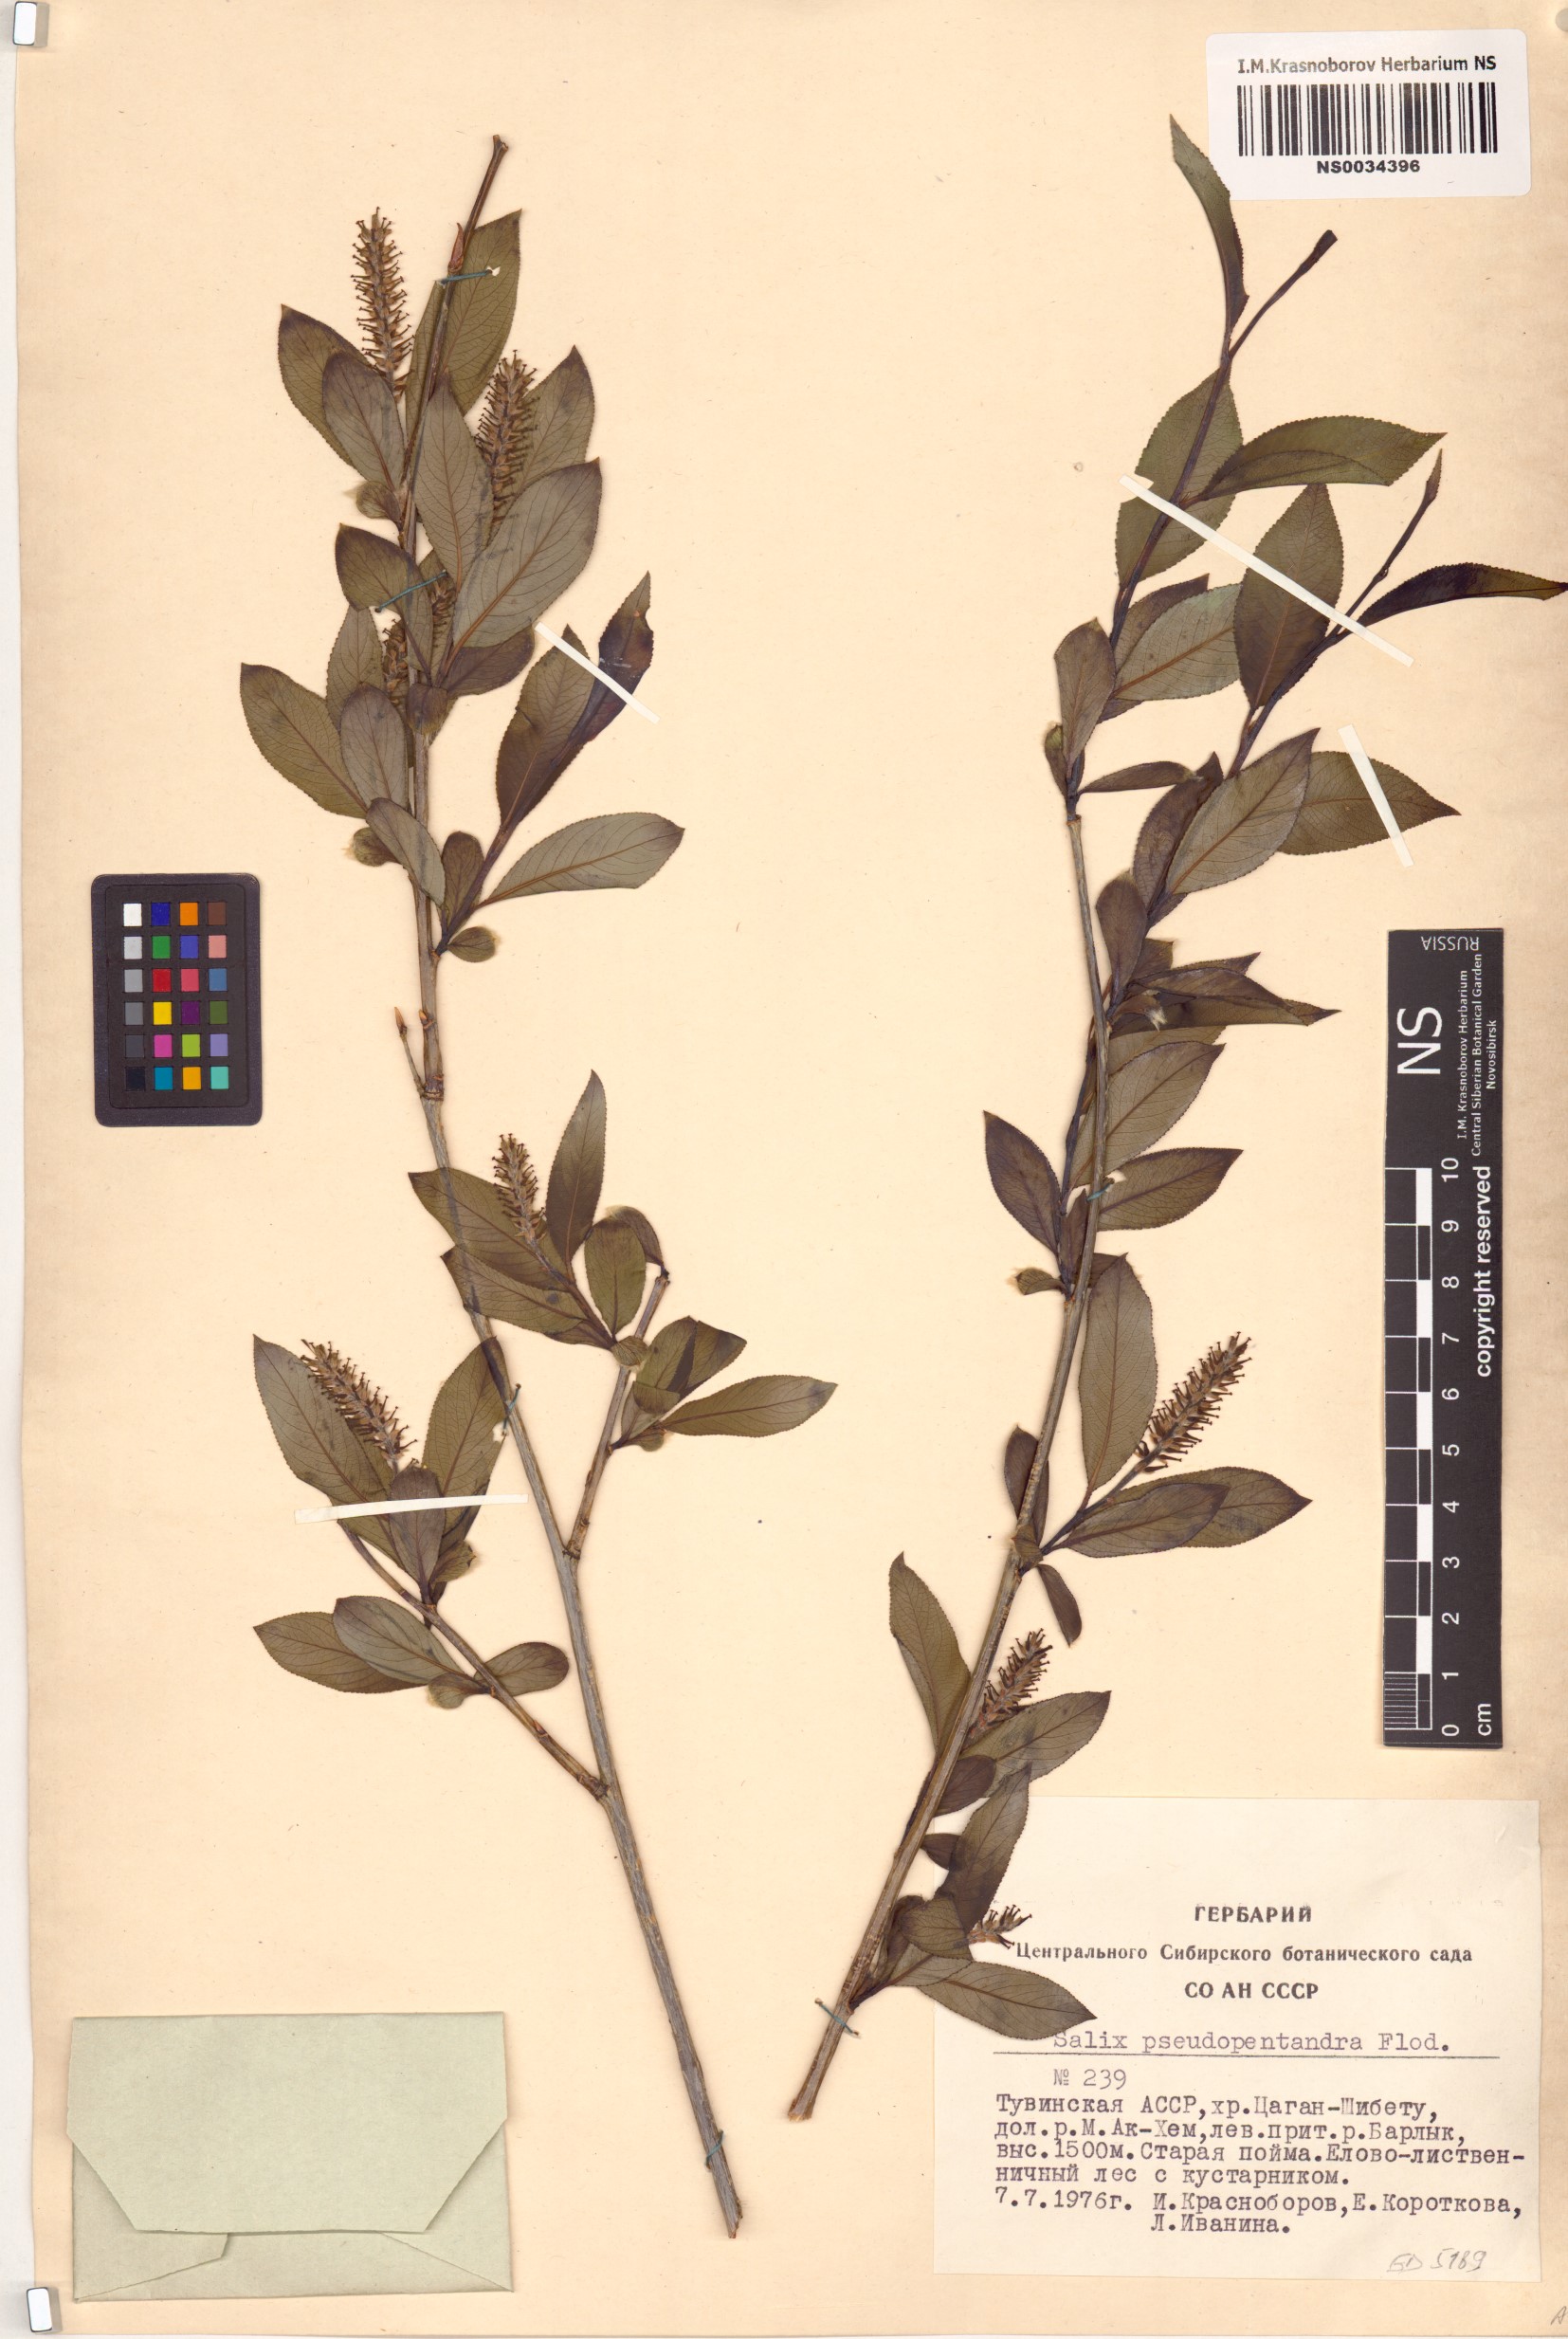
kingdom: Plantae
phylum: Tracheophyta
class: Magnoliopsida
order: Malpighiales
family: Salicaceae
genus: Salix
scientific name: Salix pseudopentandra
